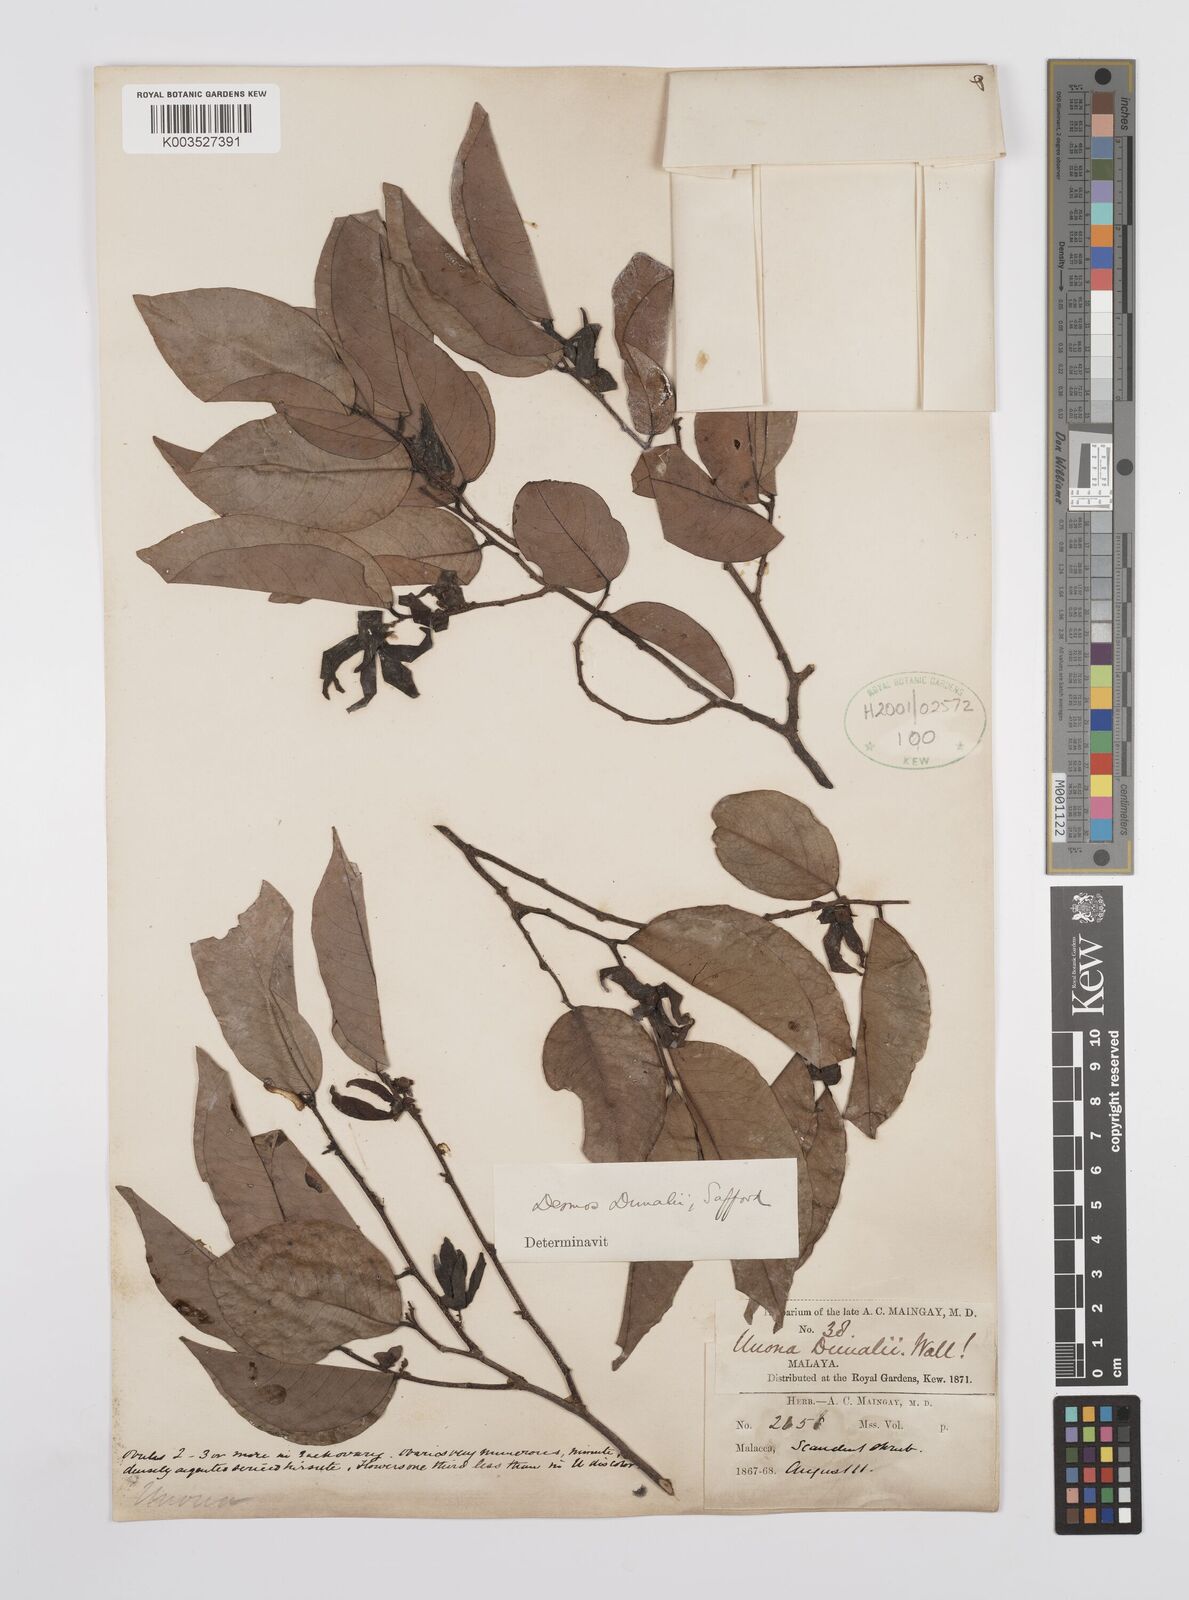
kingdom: Plantae
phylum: Tracheophyta
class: Magnoliopsida
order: Magnoliales
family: Annonaceae
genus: Desmos
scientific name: Desmos dunalii
